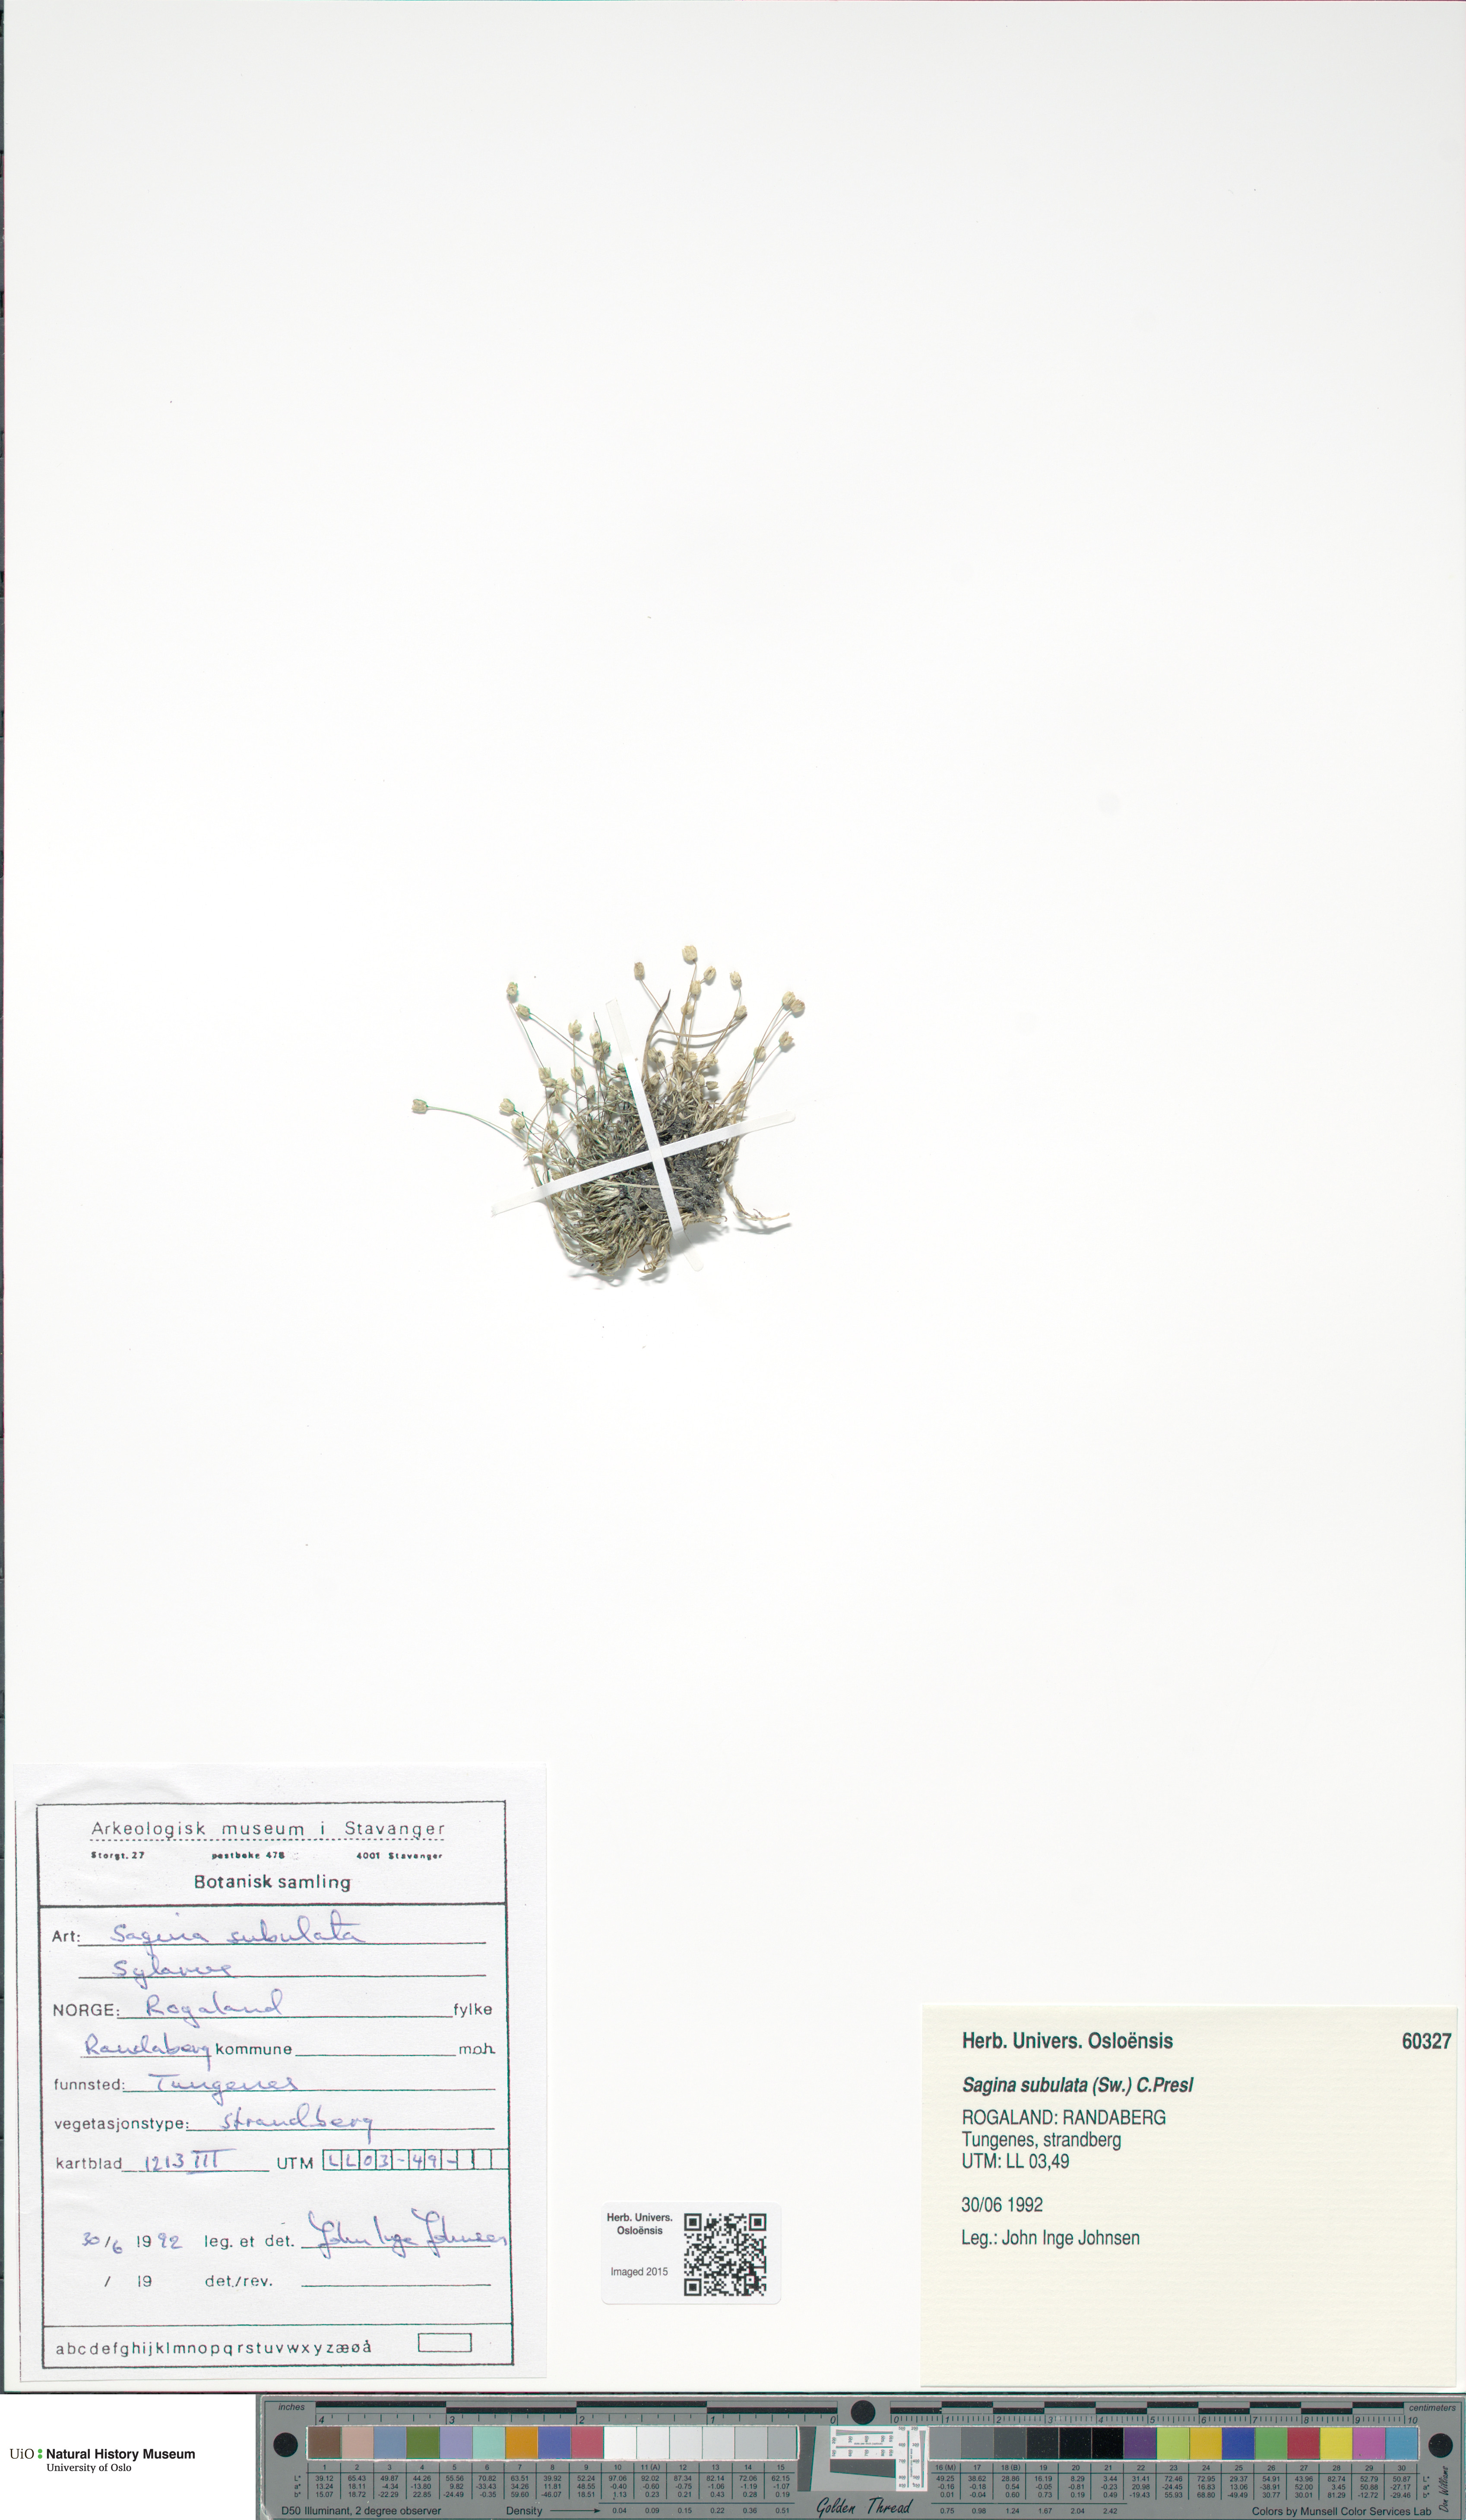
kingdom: Plantae
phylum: Tracheophyta
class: Magnoliopsida
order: Caryophyllales
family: Caryophyllaceae
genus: Sagina
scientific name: Sagina alexandrae
